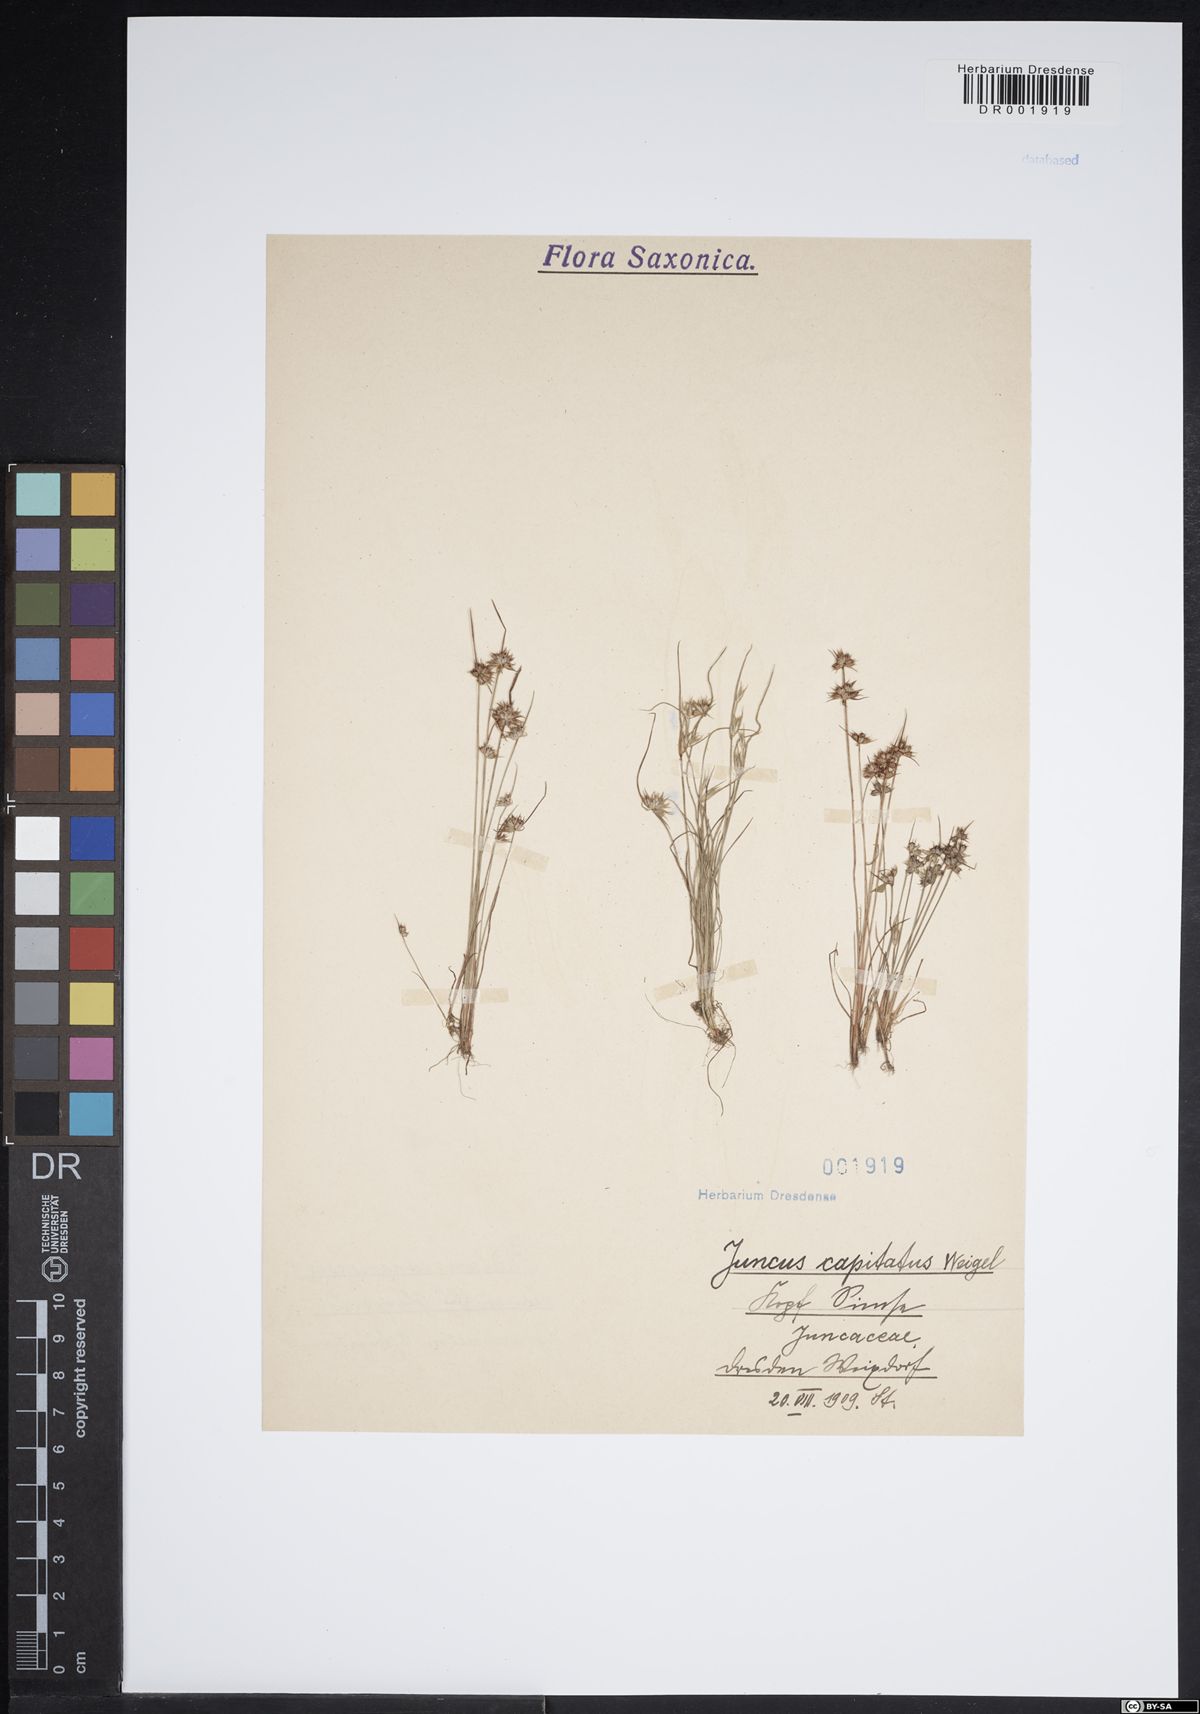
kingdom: Plantae
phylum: Tracheophyta
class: Liliopsida
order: Poales
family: Juncaceae
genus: Juncus
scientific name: Juncus capitatus
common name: Dwarf rush
